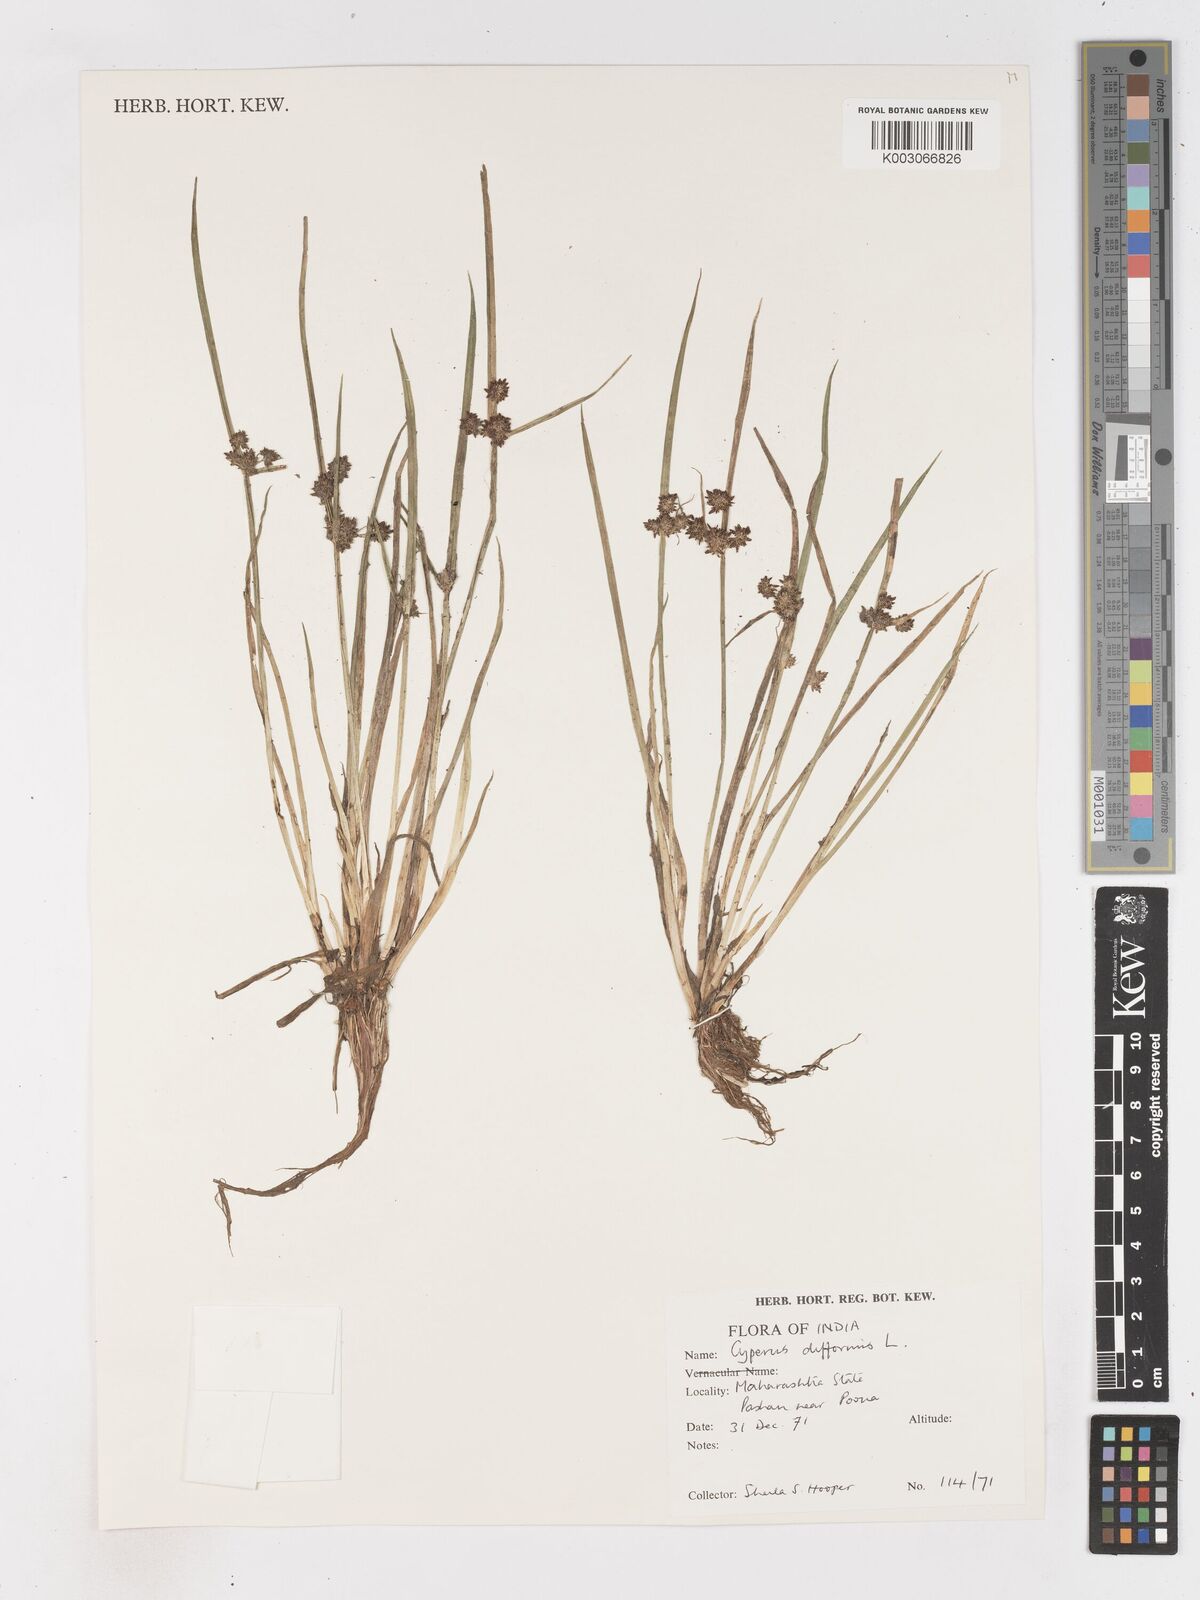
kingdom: Plantae
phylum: Tracheophyta
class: Liliopsida
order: Poales
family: Cyperaceae
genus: Cyperus
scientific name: Cyperus difformis
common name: Variable flatsedge
